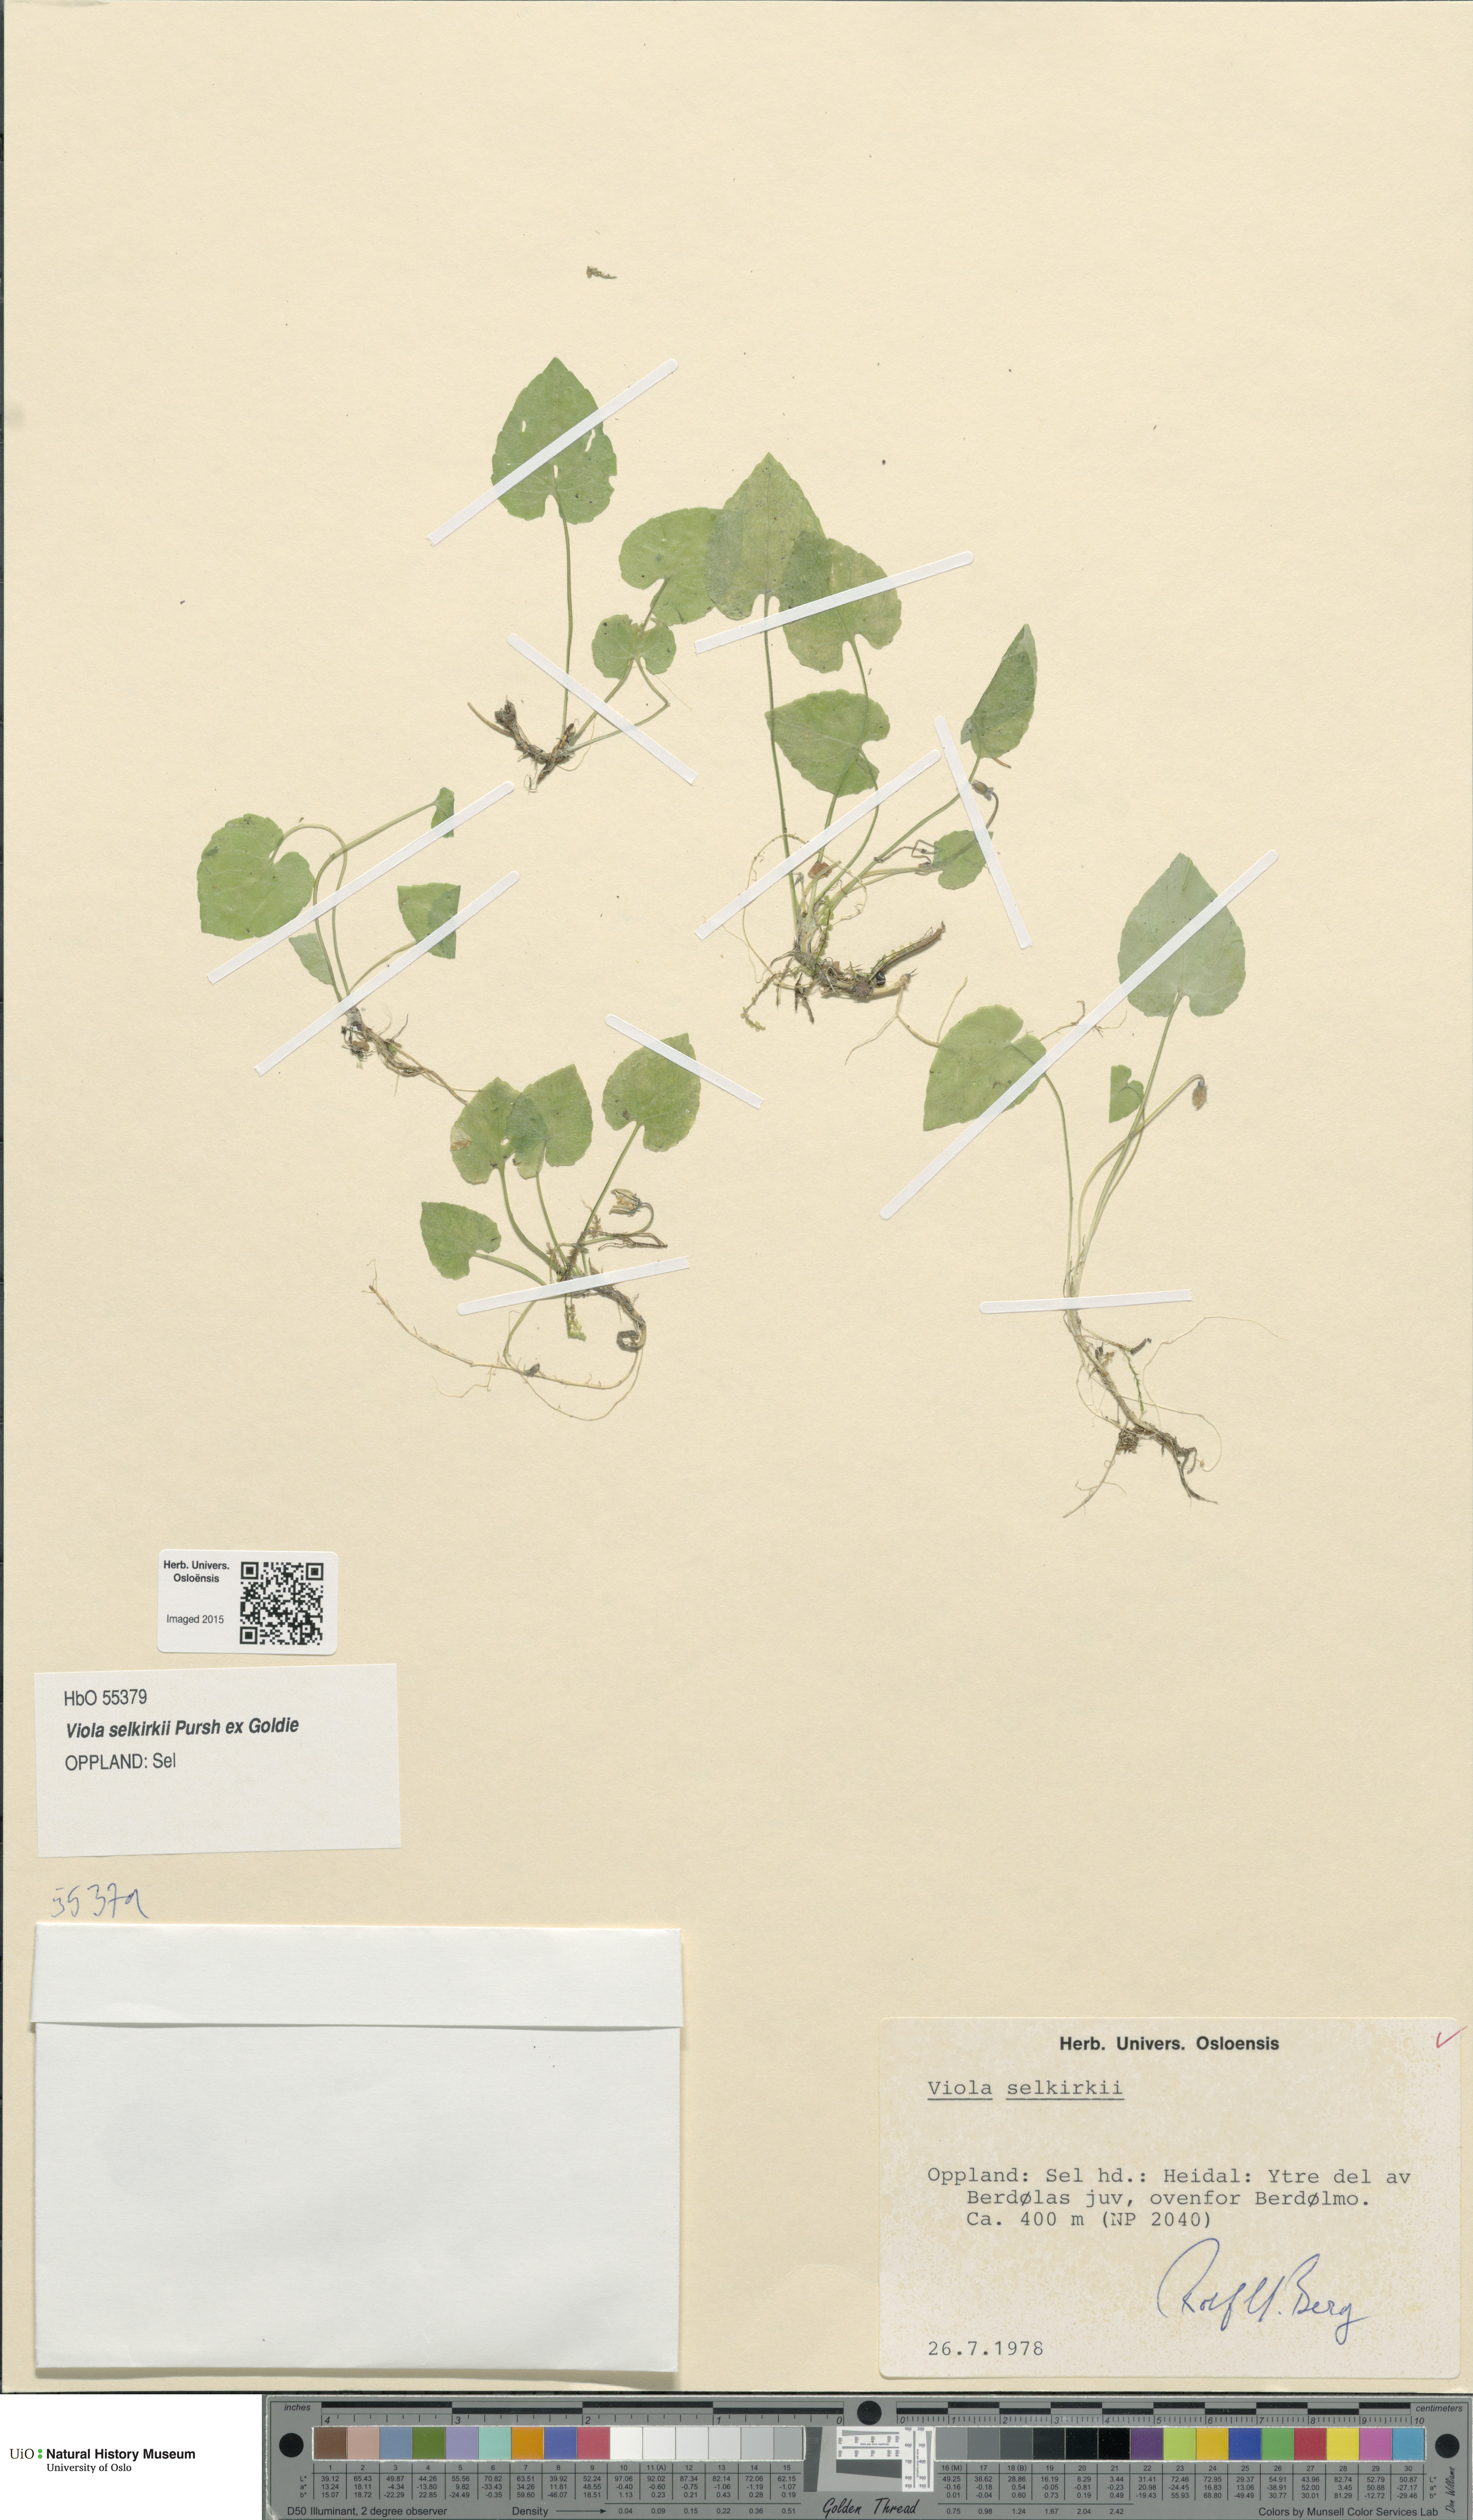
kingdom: Plantae
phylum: Tracheophyta
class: Magnoliopsida
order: Malpighiales
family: Violaceae
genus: Viola
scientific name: Viola selkirkii
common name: Selkirk's violet
